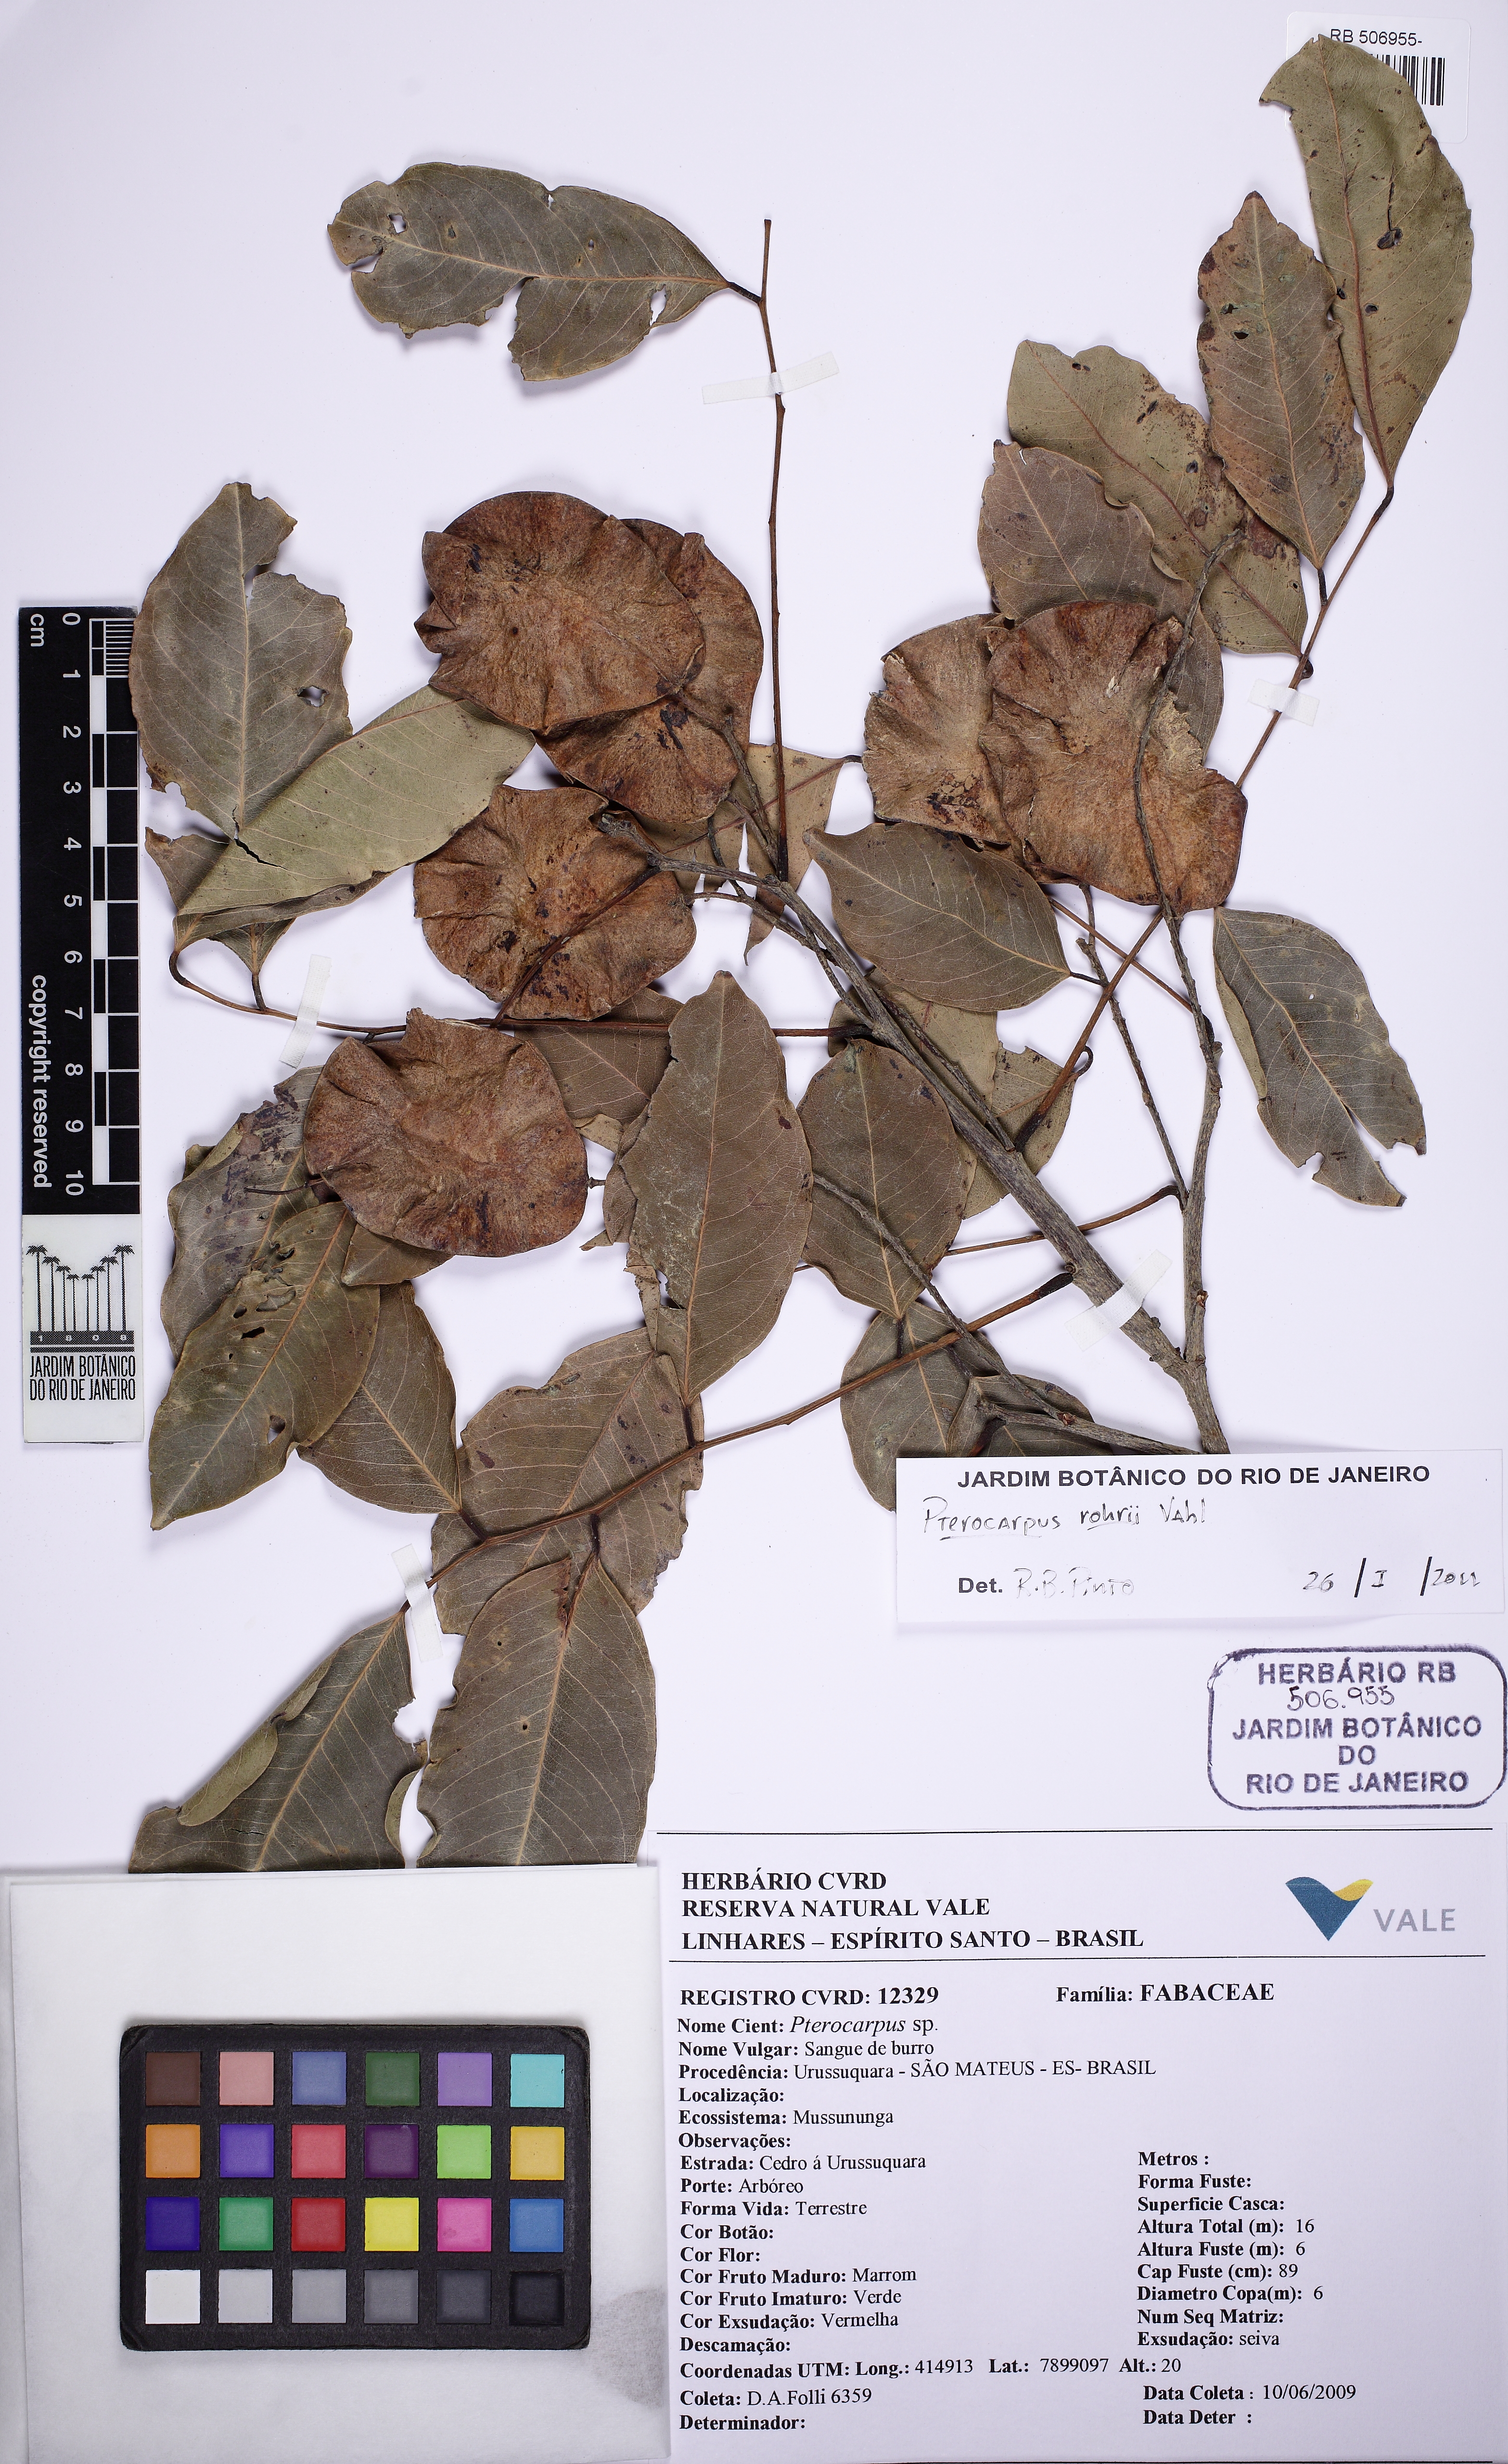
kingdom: Plantae
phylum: Tracheophyta
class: Magnoliopsida
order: Fabales
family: Fabaceae
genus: Pterocarpus
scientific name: Pterocarpus rohrii
